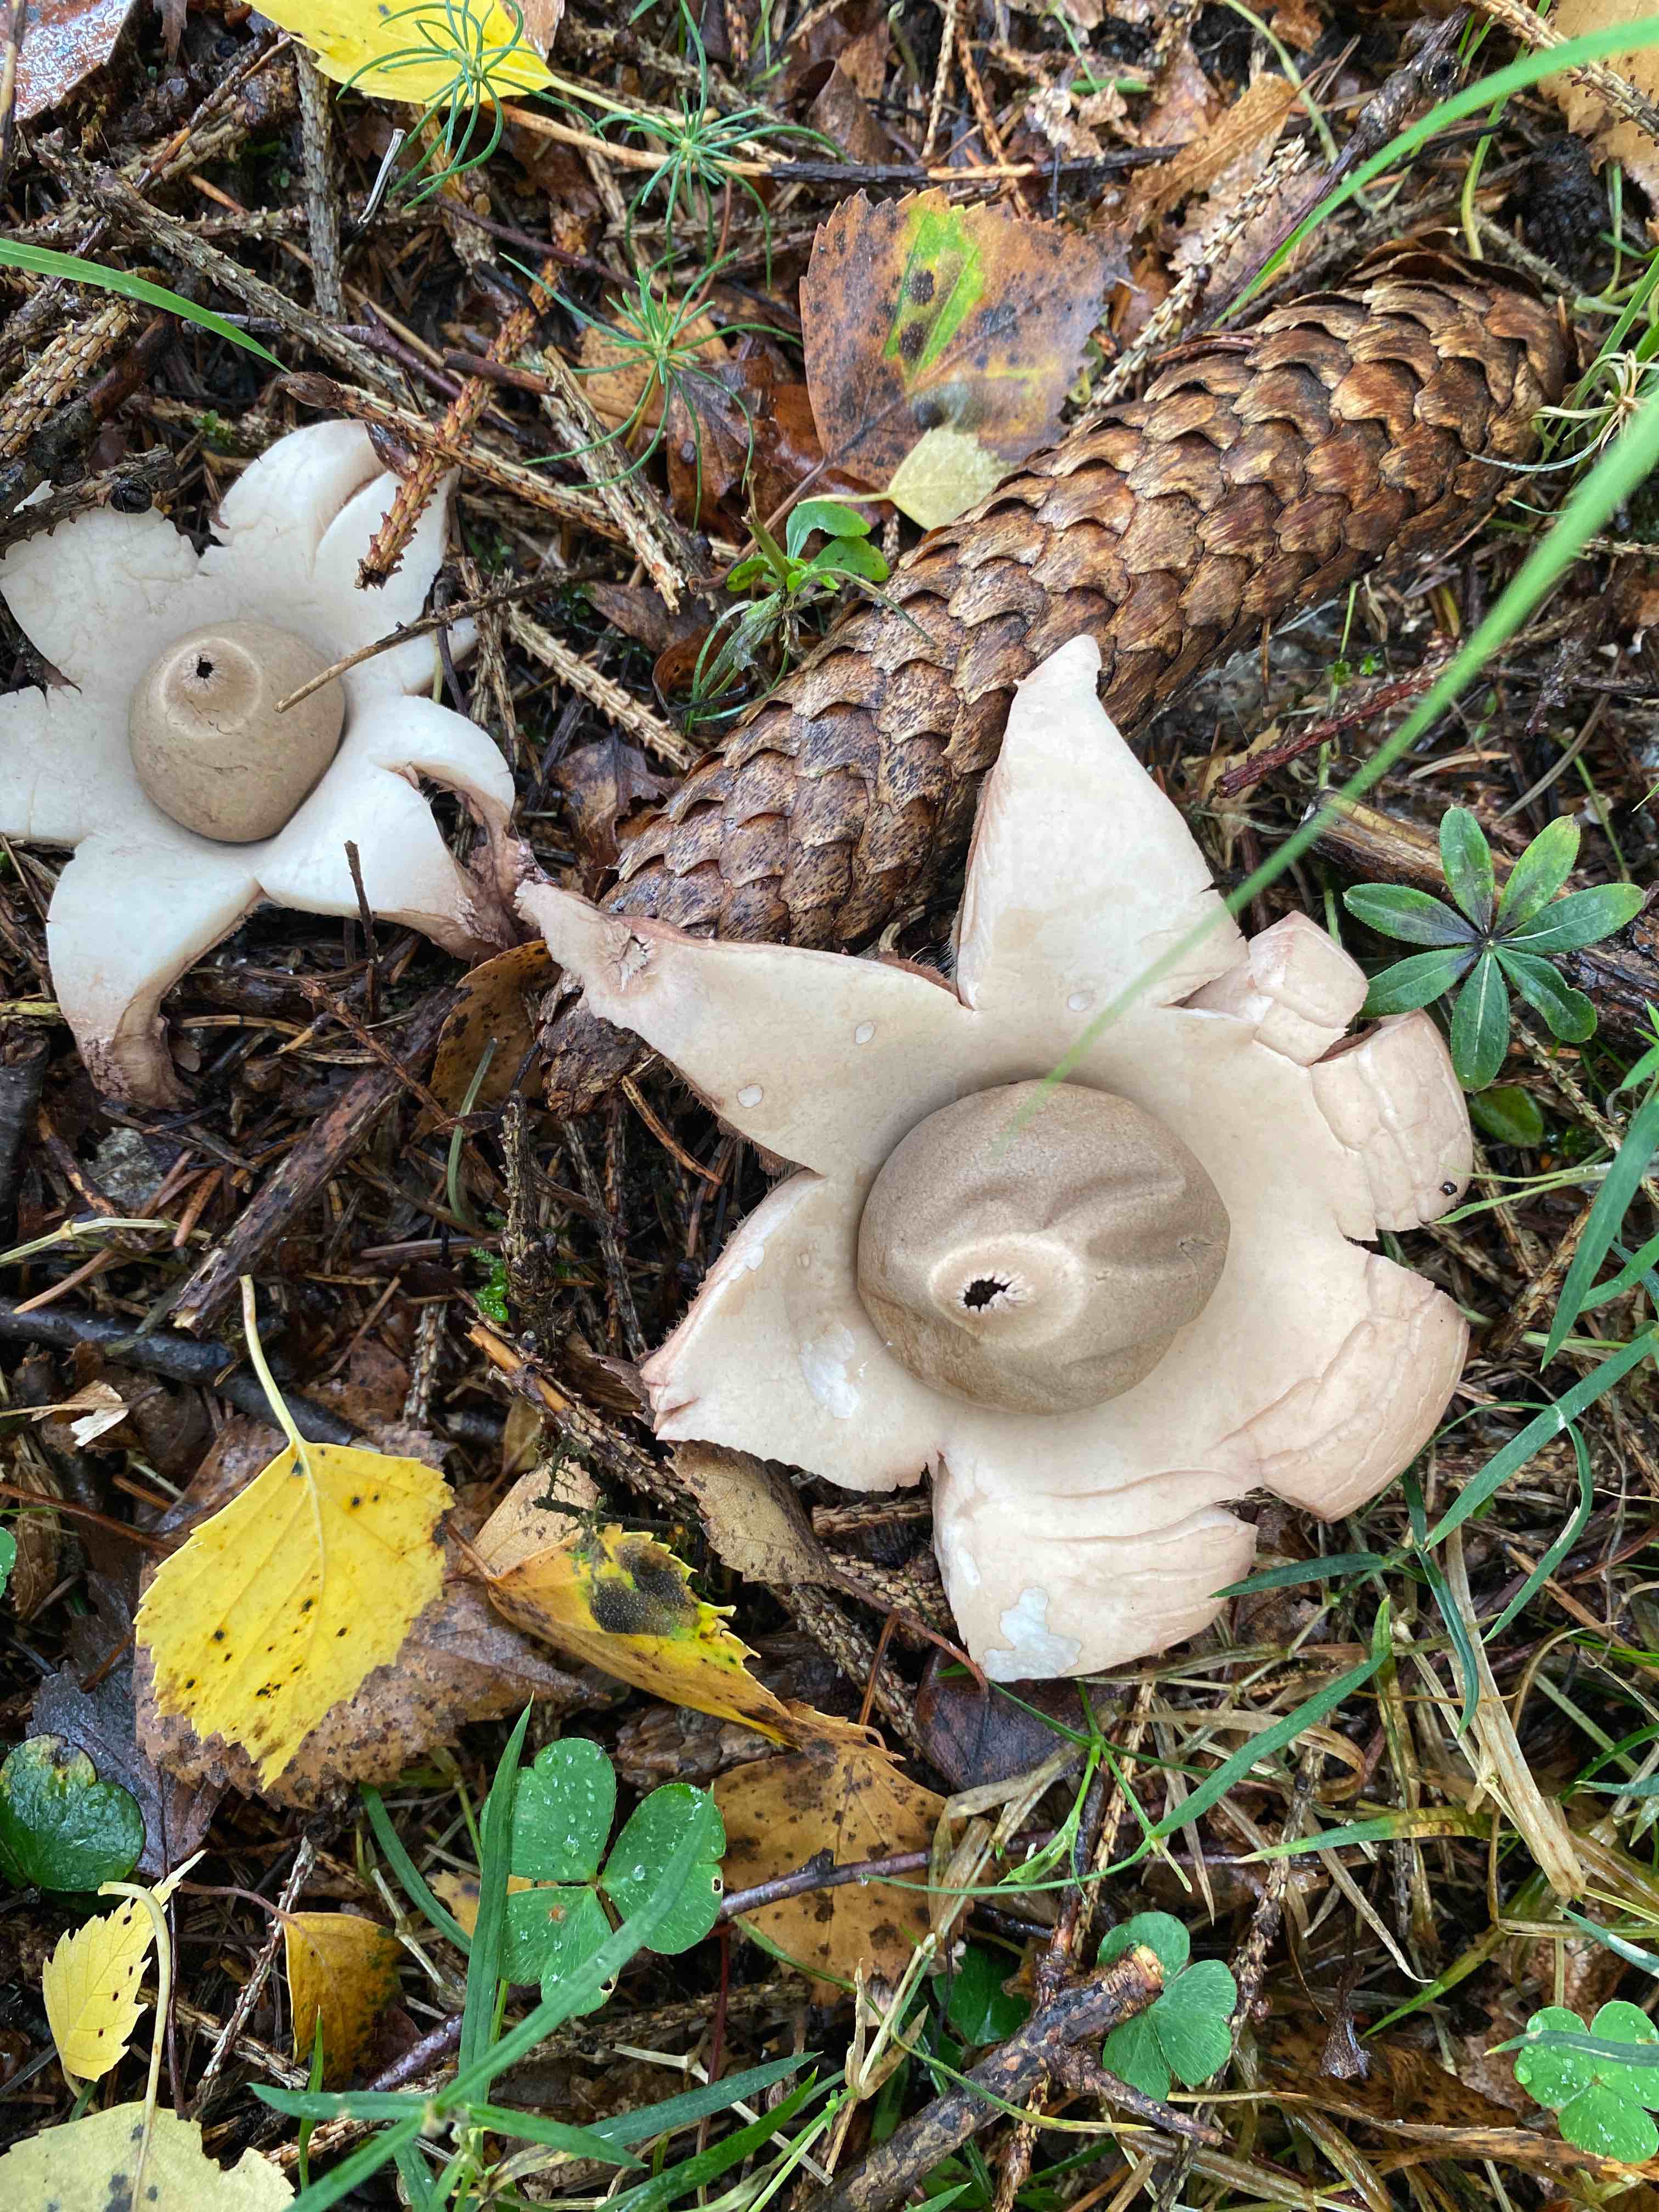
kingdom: Fungi
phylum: Basidiomycota
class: Agaricomycetes
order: Geastrales
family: Geastraceae
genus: Geastrum
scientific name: Geastrum michelianum
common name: kødet stjernebold
